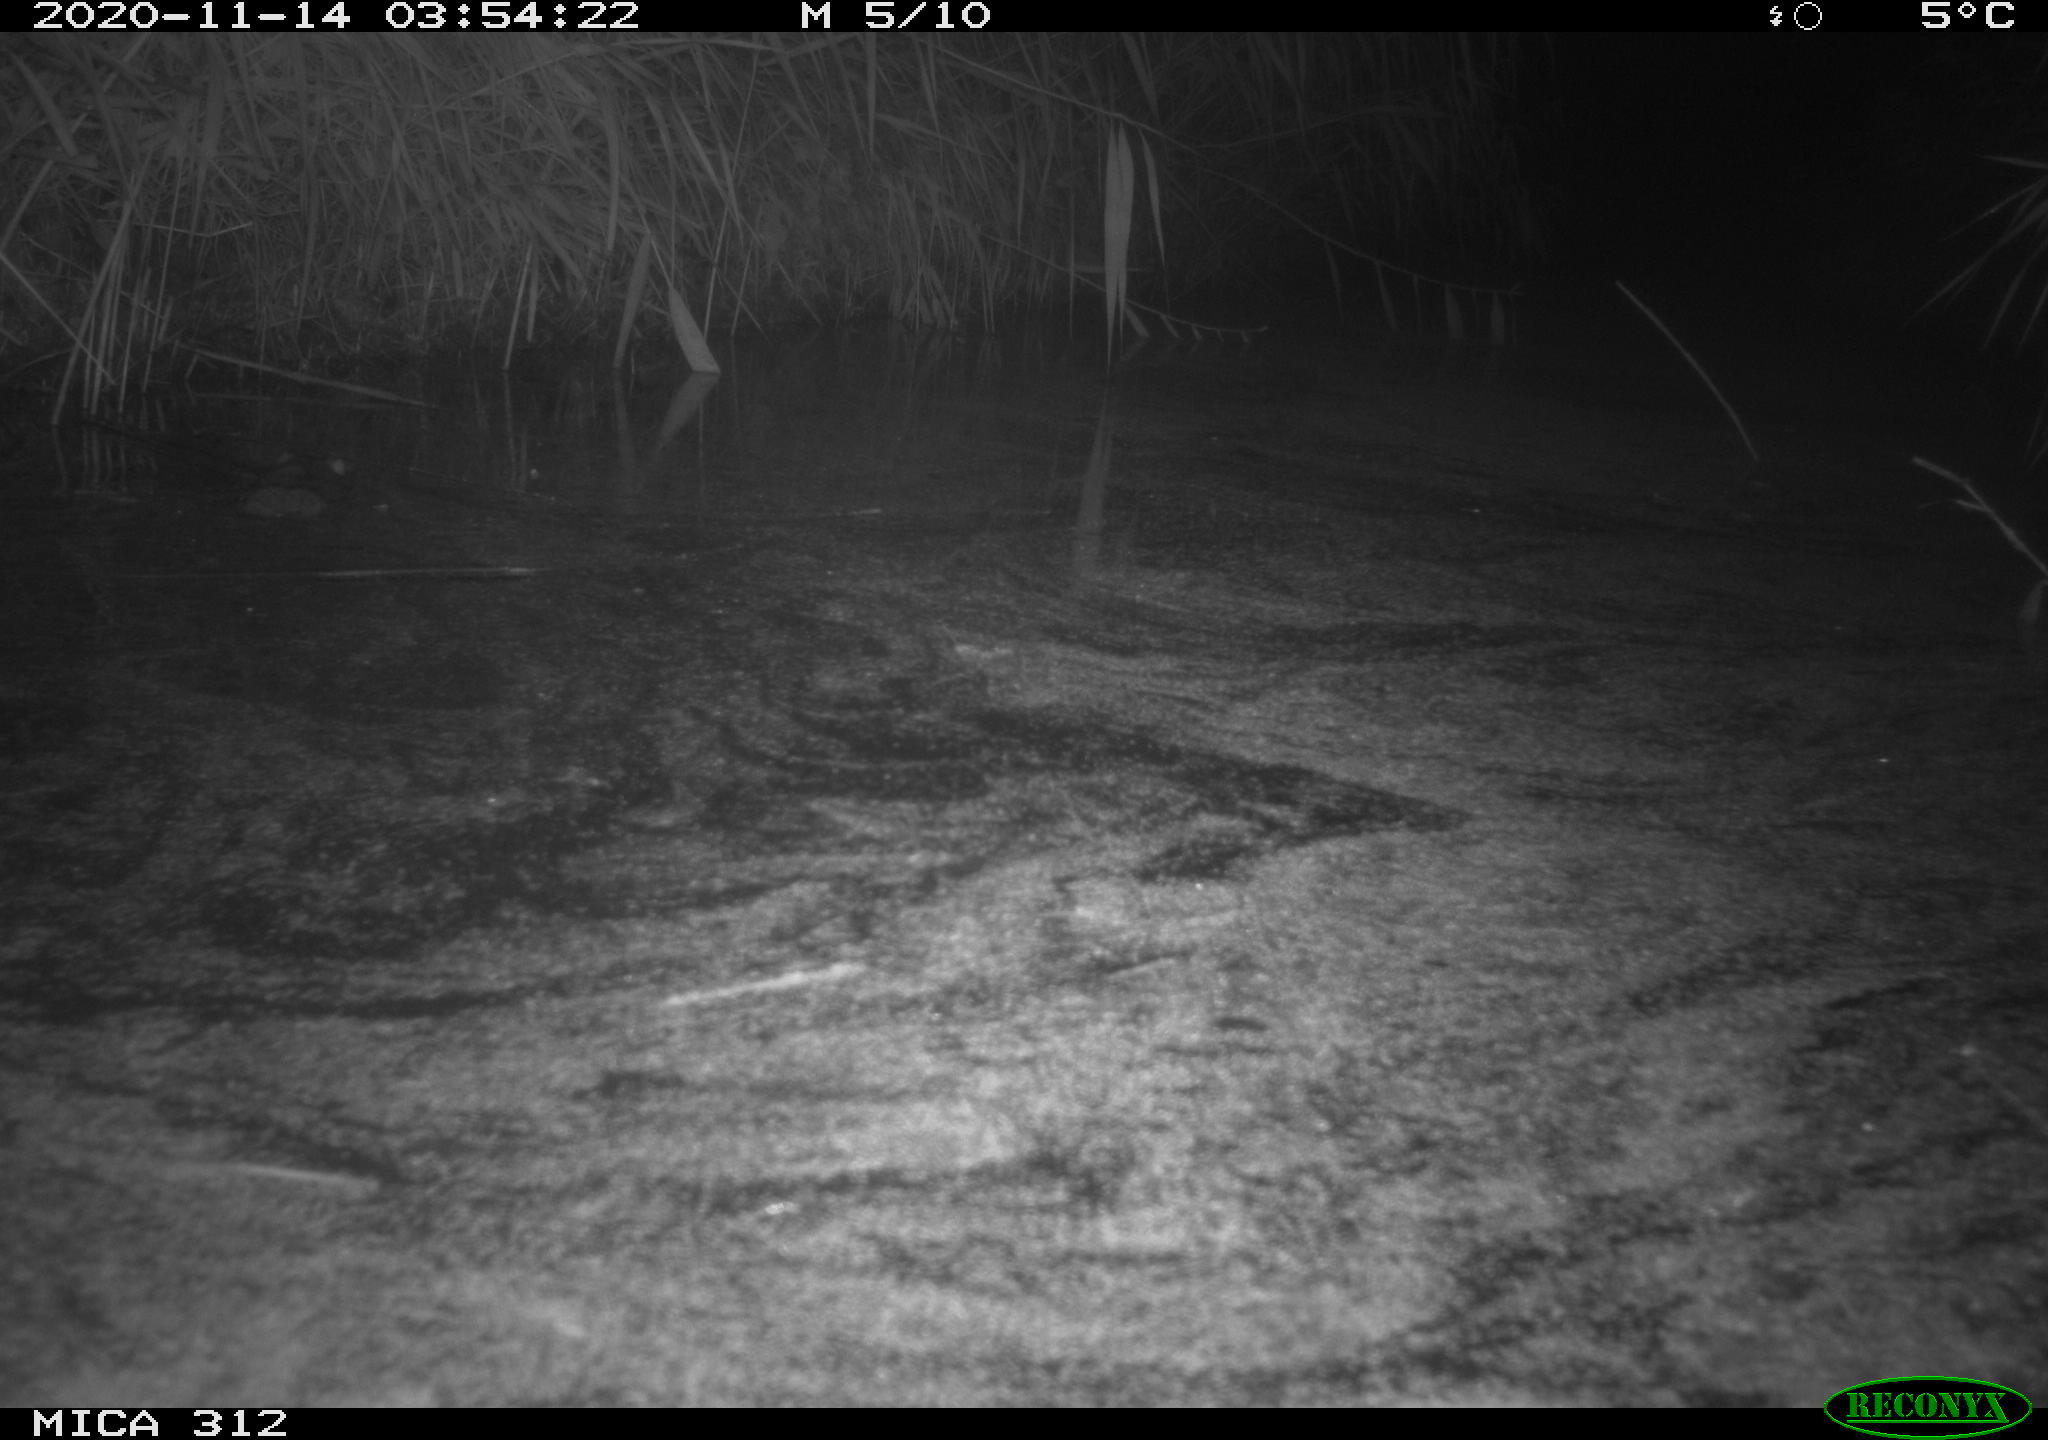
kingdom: Animalia
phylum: Chordata
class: Mammalia
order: Rodentia
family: Muridae
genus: Rattus
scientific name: Rattus norvegicus
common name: Brown rat
